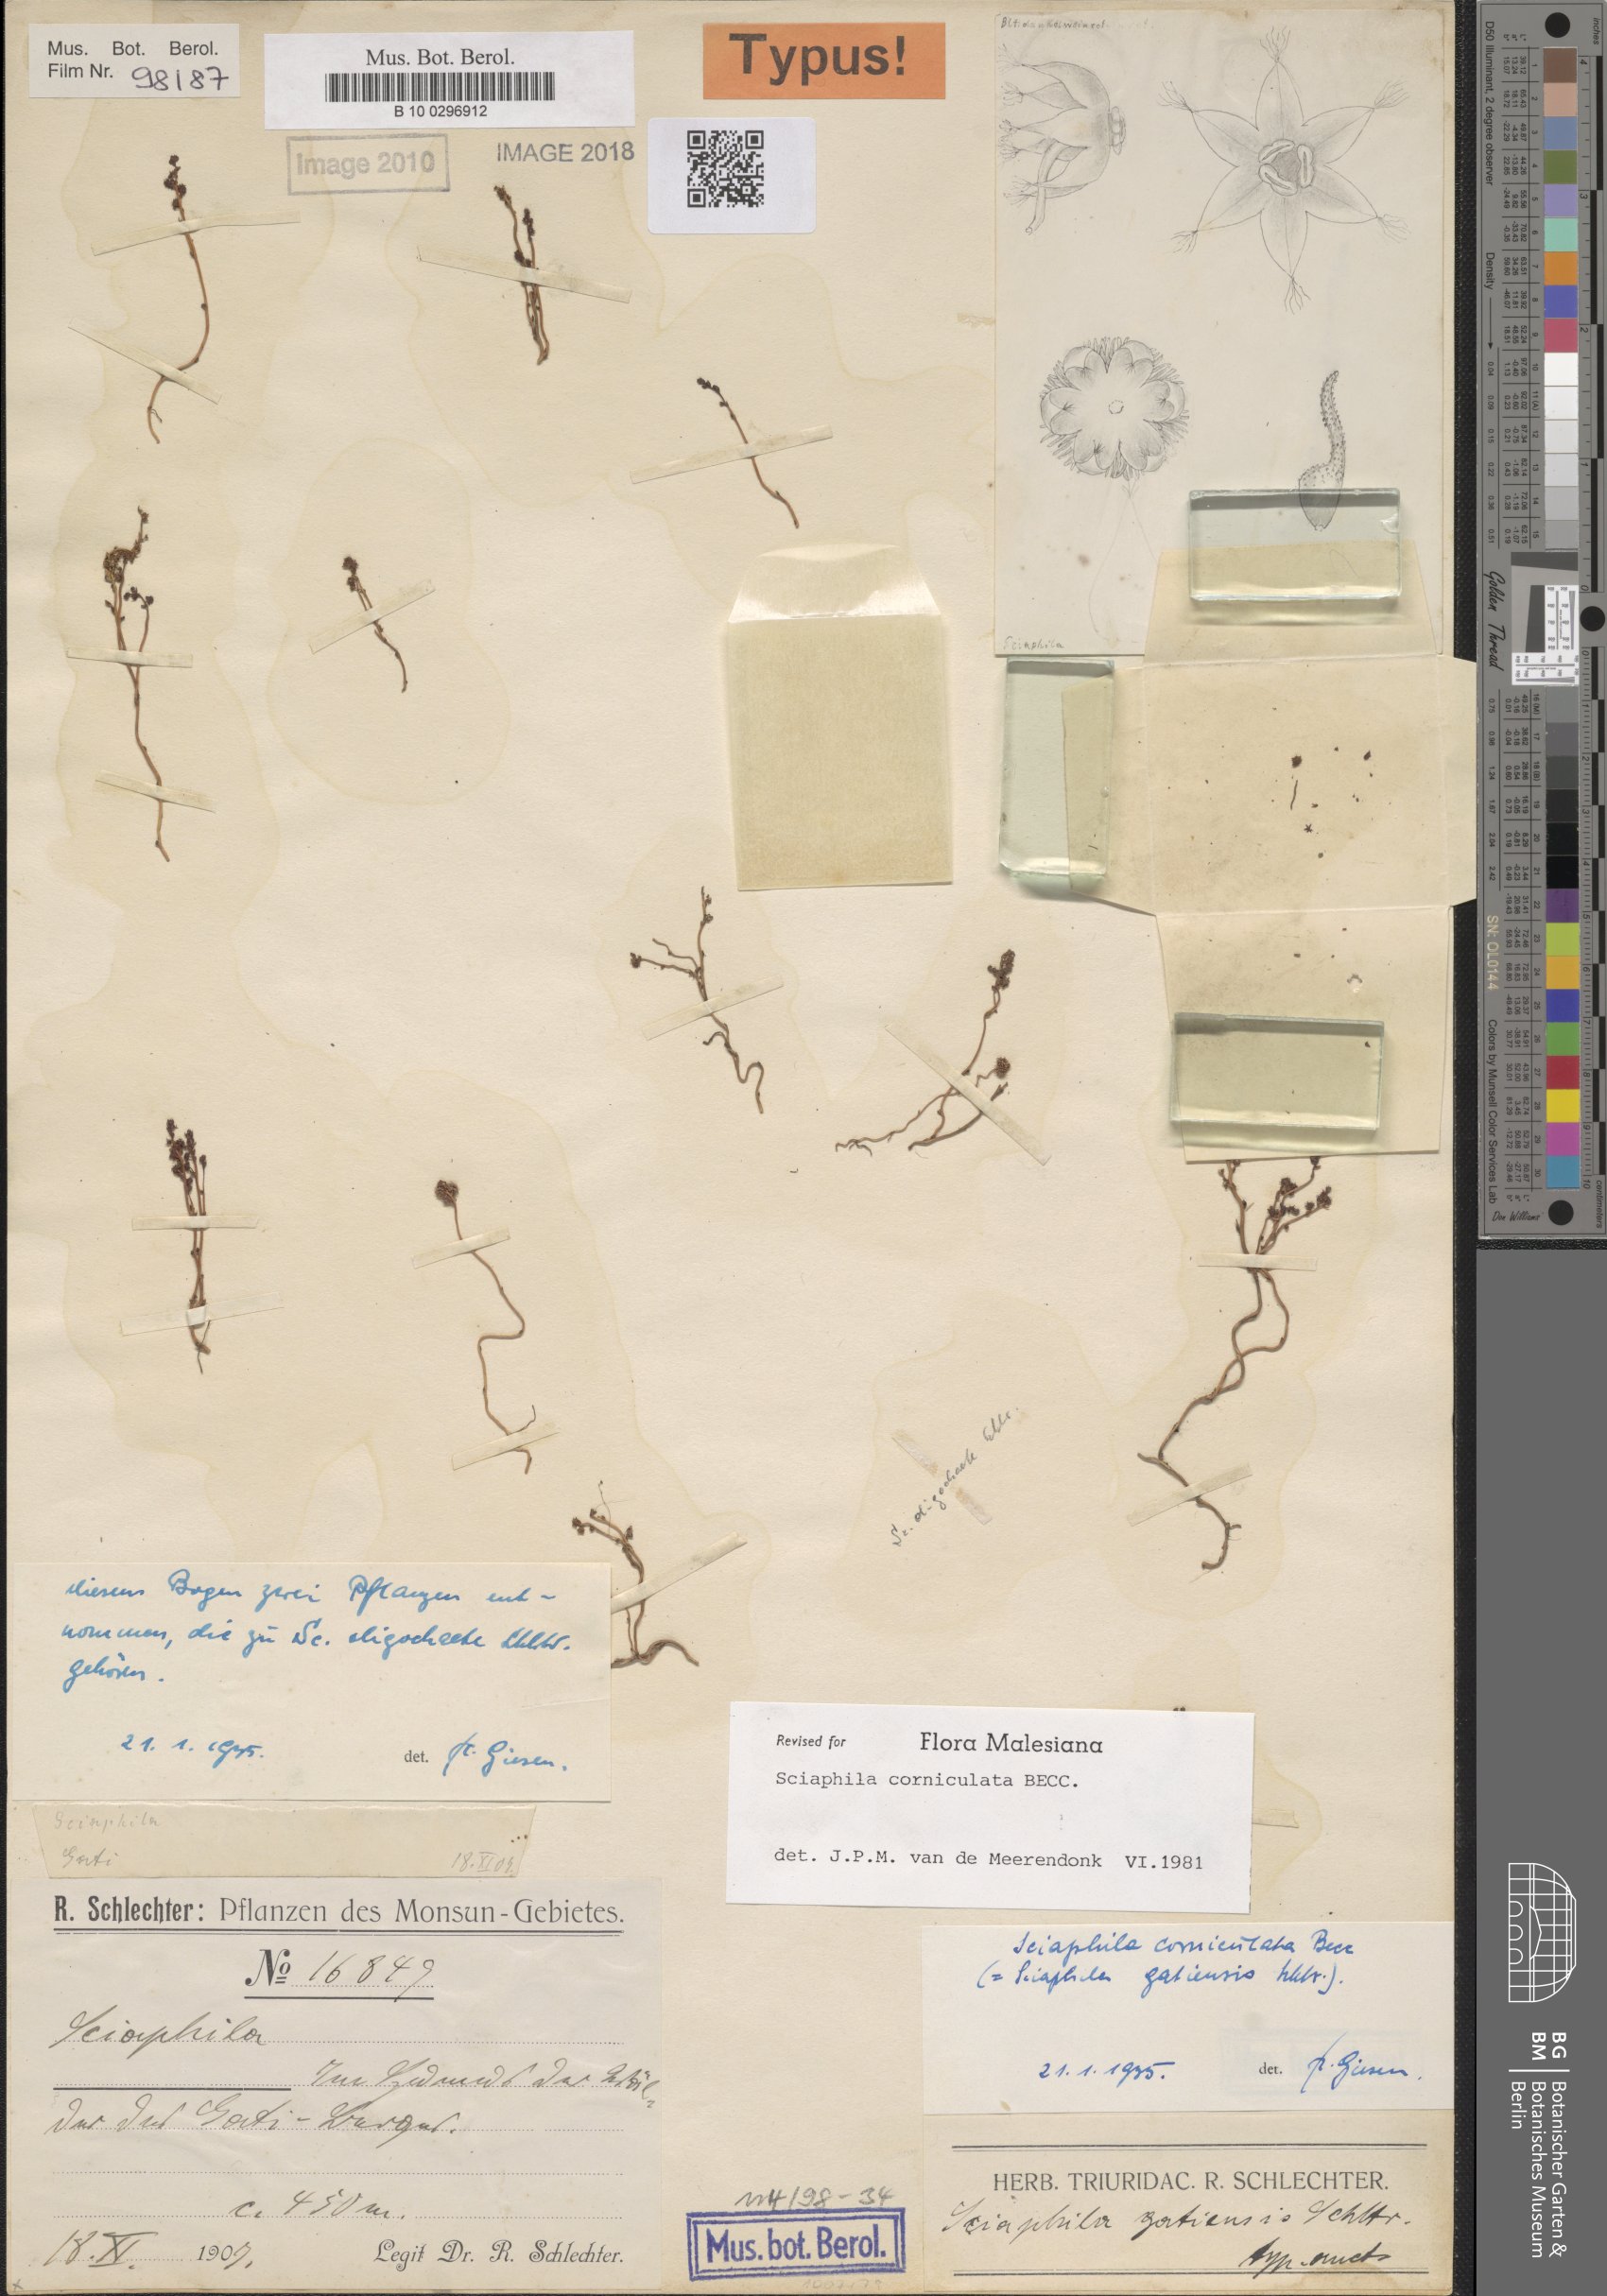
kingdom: Plantae
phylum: Tracheophyta
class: Liliopsida
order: Pandanales
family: Triuridaceae
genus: Sciaphila
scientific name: Sciaphila corniculata
